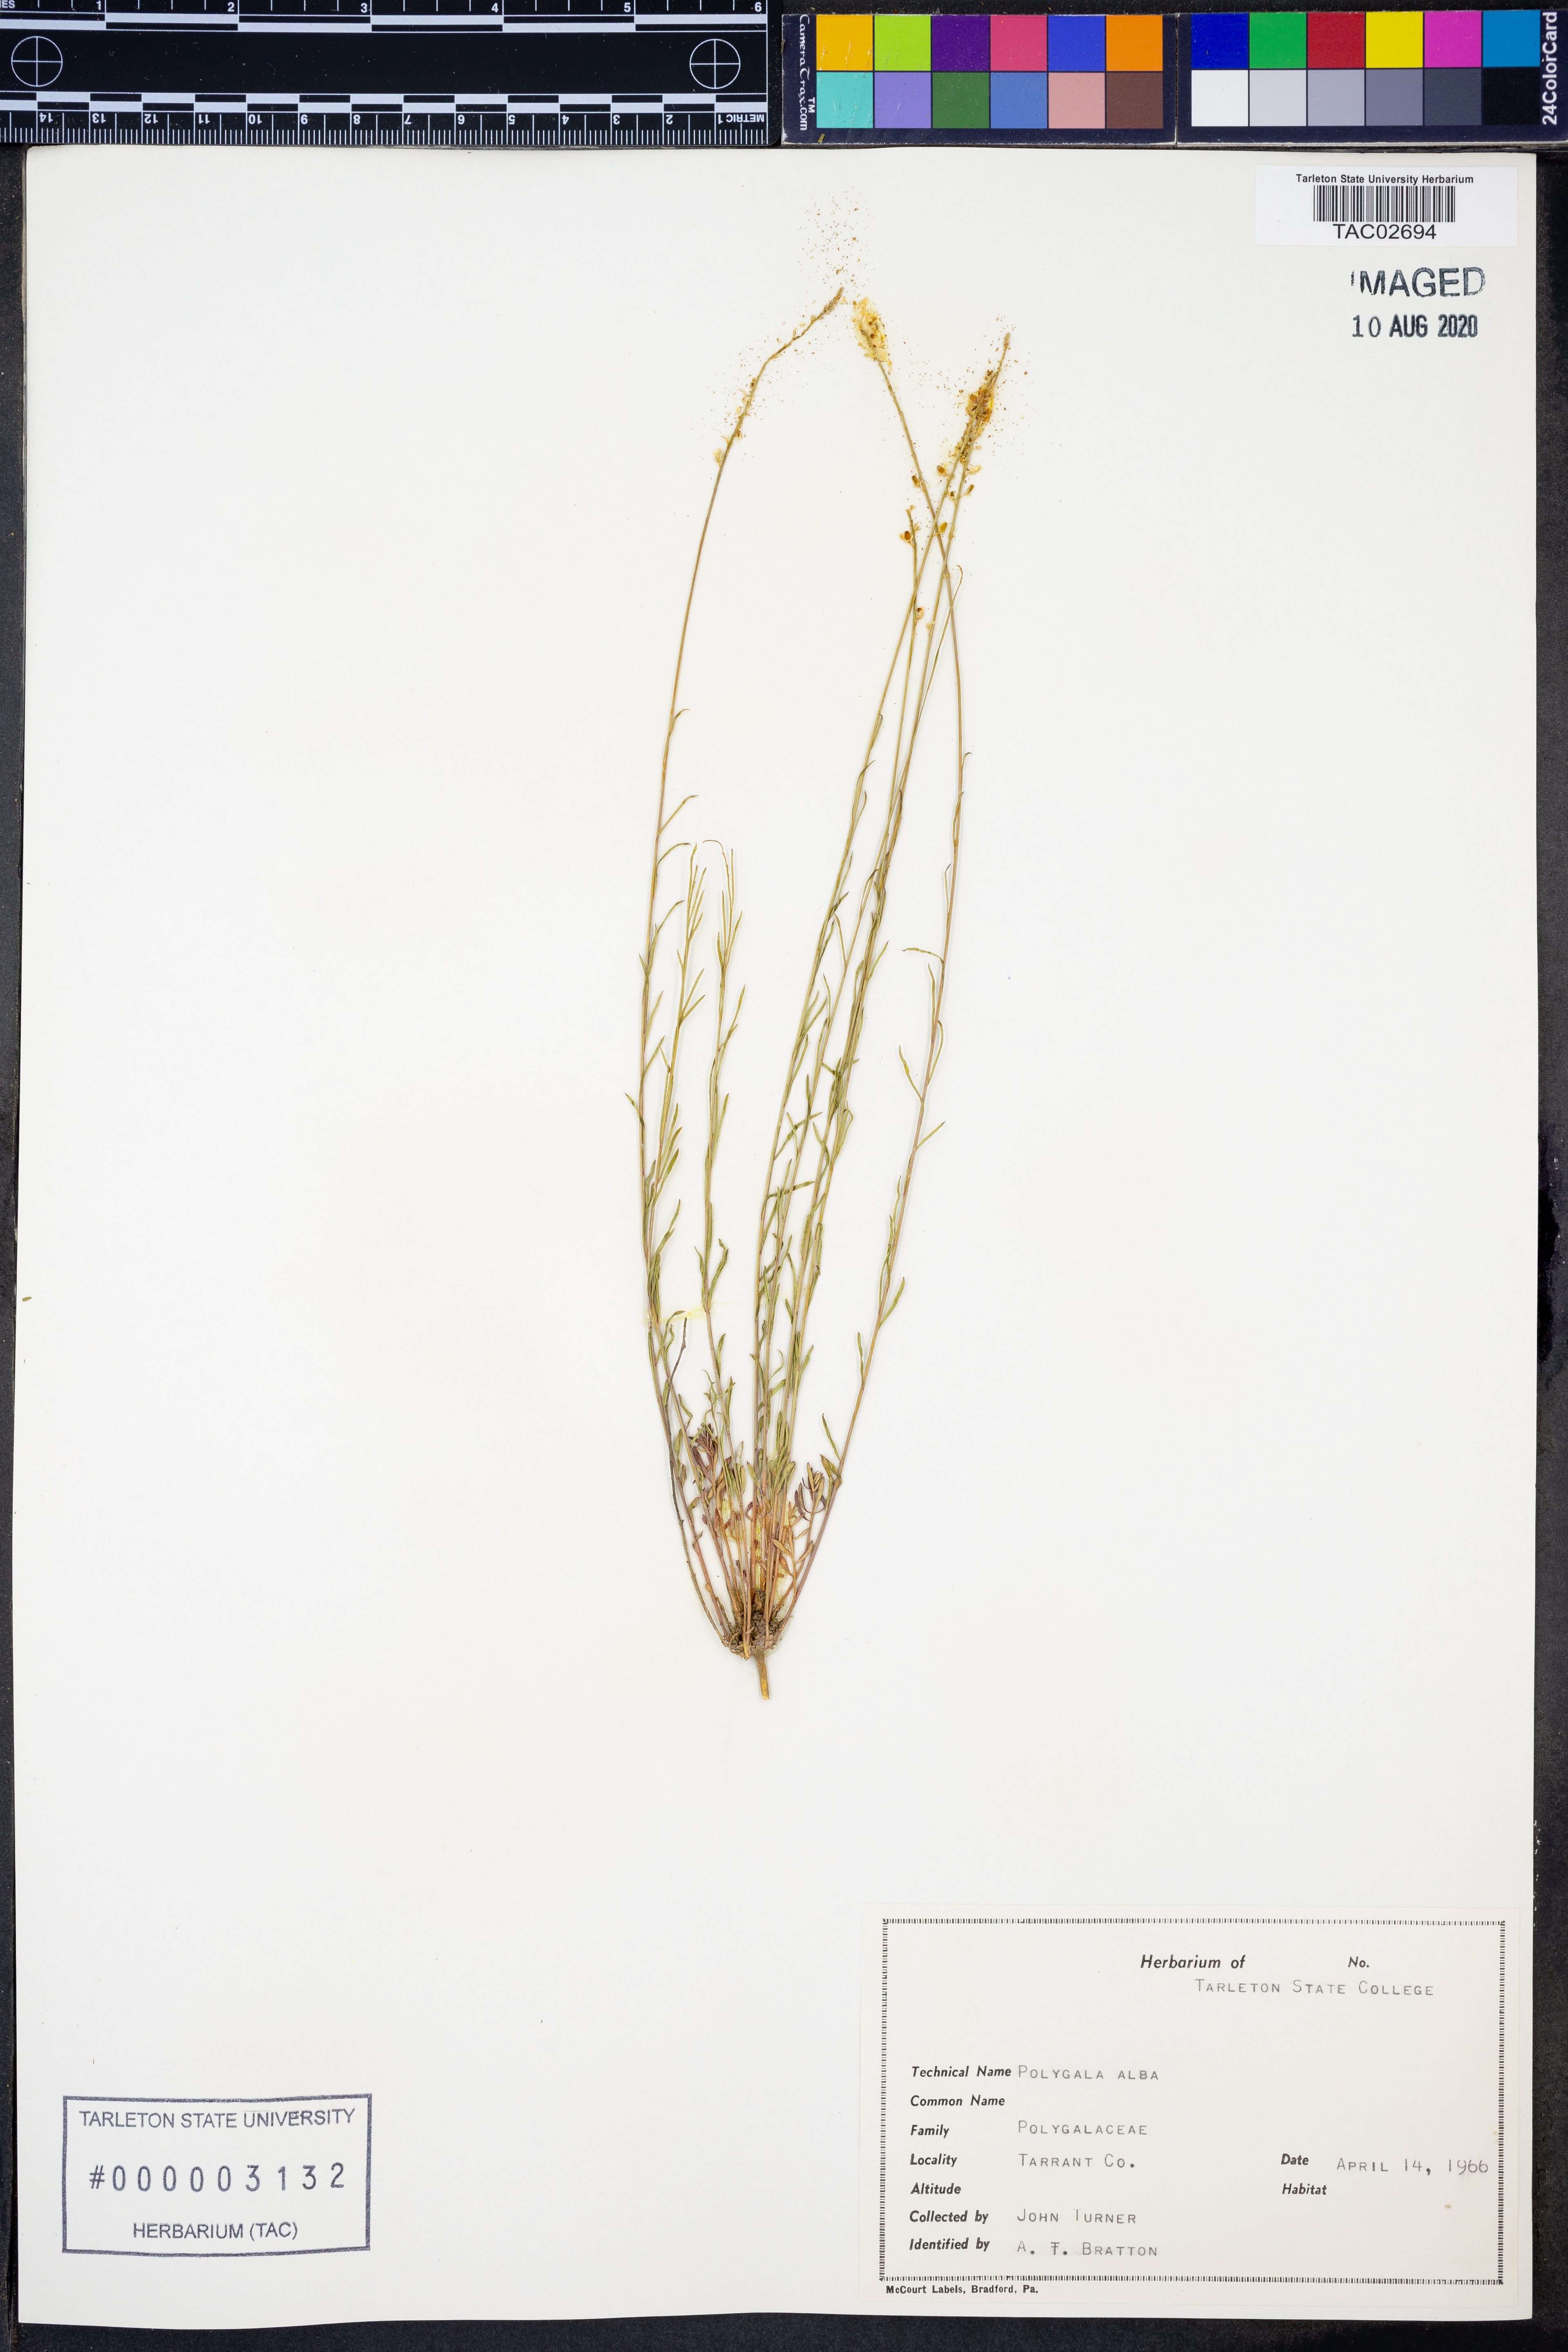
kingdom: Plantae
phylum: Tracheophyta
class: Magnoliopsida
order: Fabales
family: Polygalaceae
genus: Polygala
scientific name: Polygala alba
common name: White milkwort
